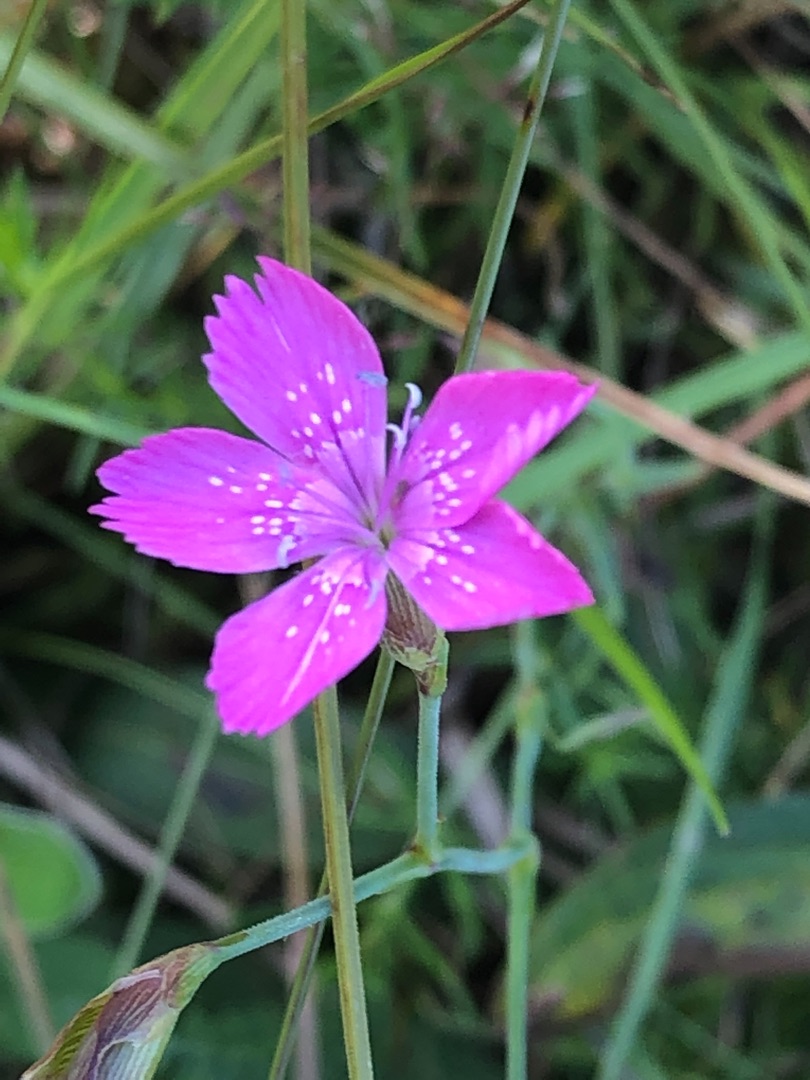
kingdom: Plantae
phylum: Tracheophyta
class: Magnoliopsida
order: Caryophyllales
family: Caryophyllaceae
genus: Dianthus
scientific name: Dianthus deltoides
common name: Bakke-nellike
